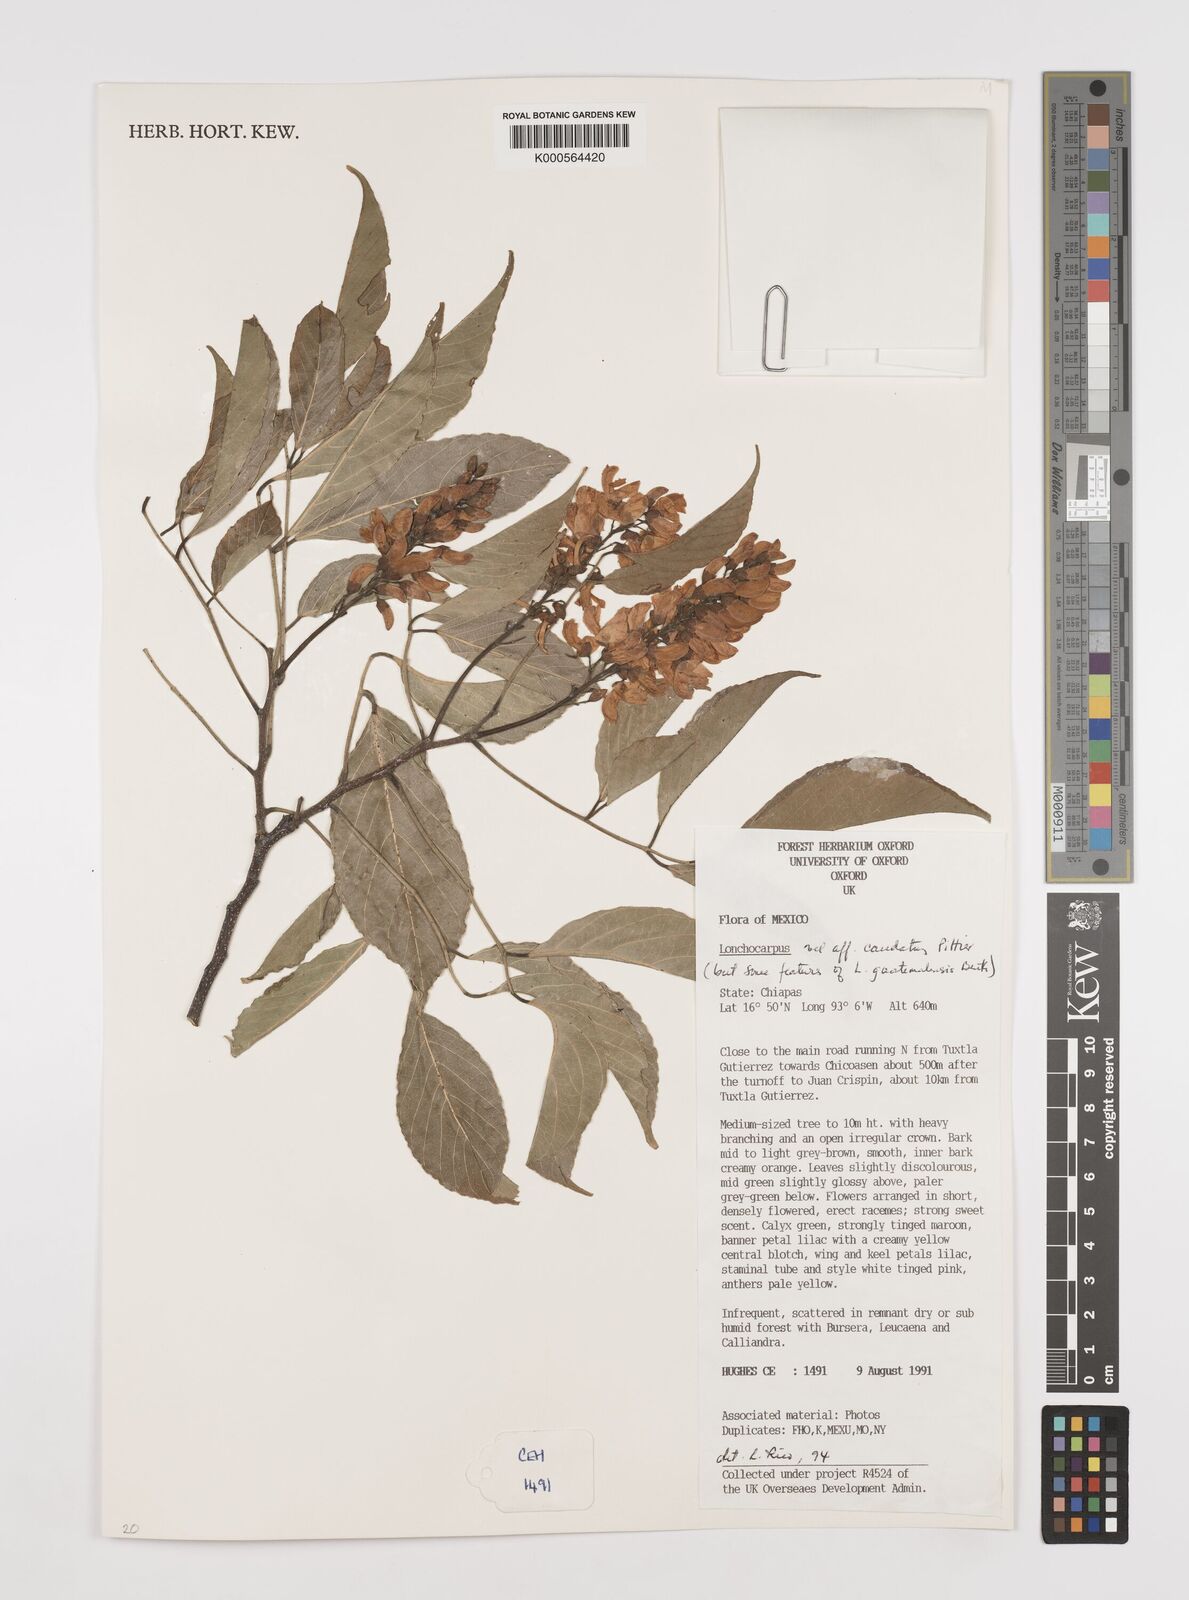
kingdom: Plantae
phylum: Tracheophyta
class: Magnoliopsida
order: Fabales
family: Fabaceae
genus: Lonchocarpus
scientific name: Lonchocarpus caudatus
